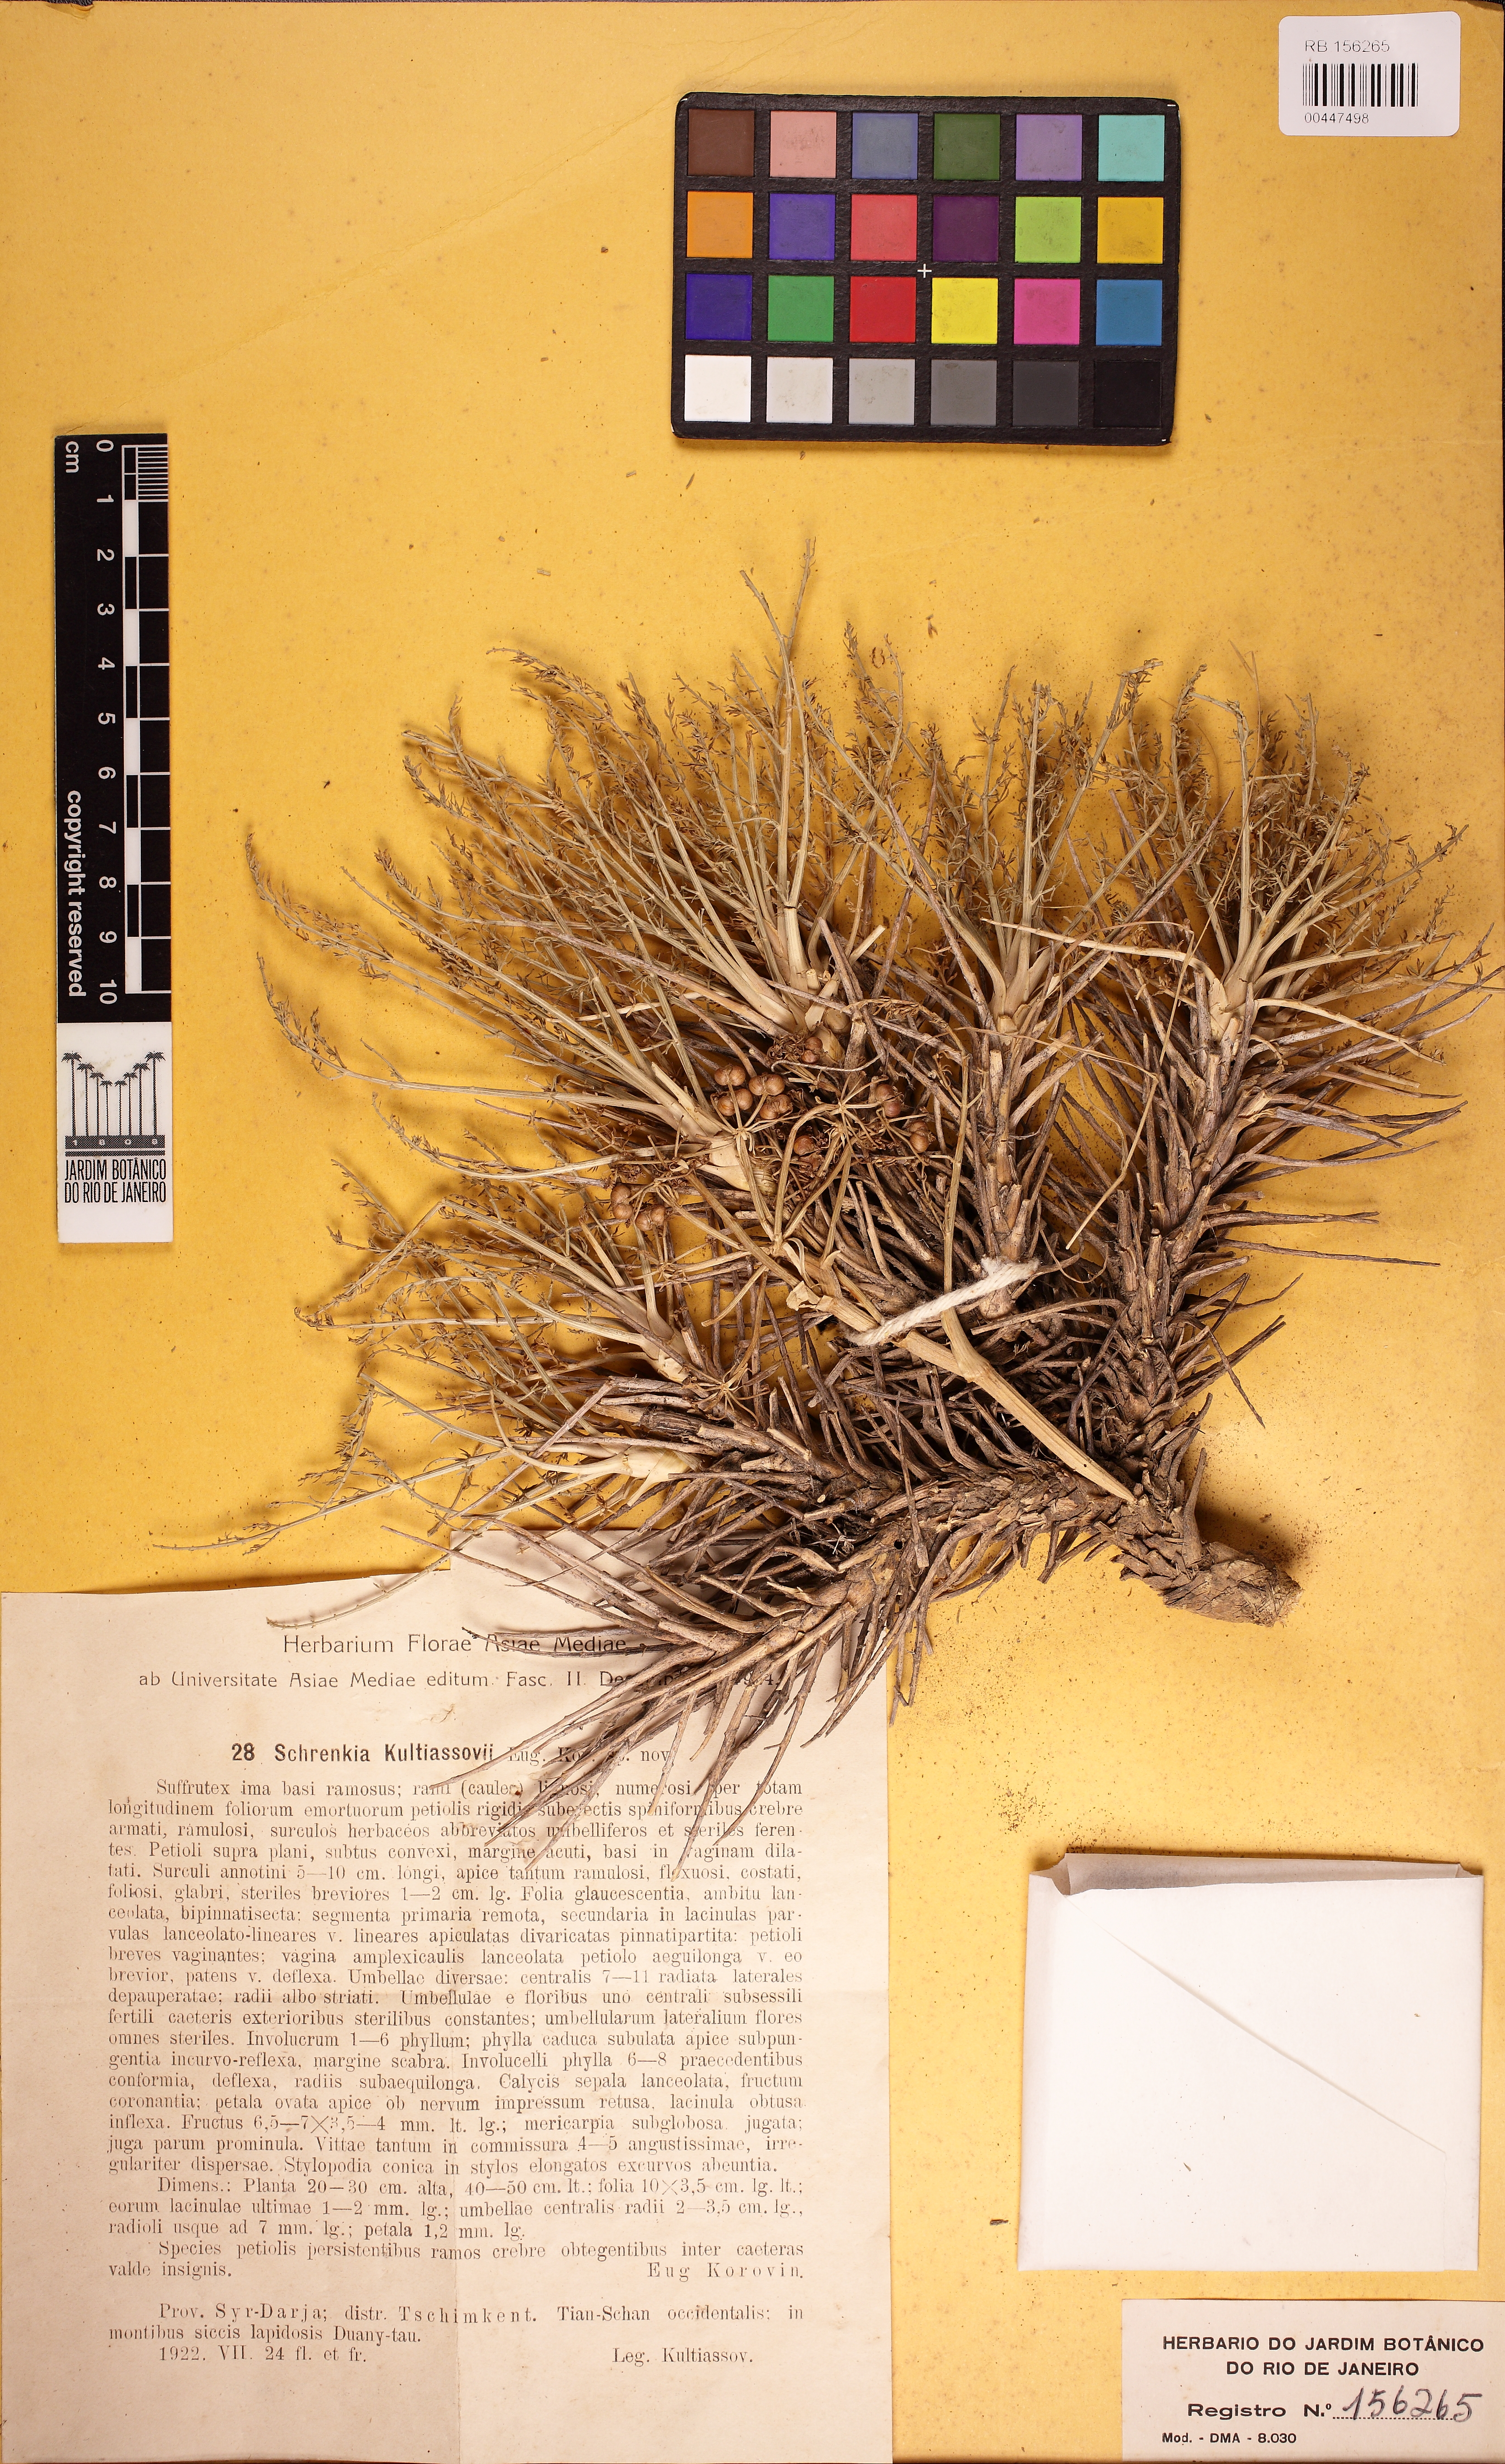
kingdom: Plantae
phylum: Tracheophyta
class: Magnoliopsida
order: Apiales
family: Apiaceae
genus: Schrenkia
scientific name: Schrenkia kultiassovii
